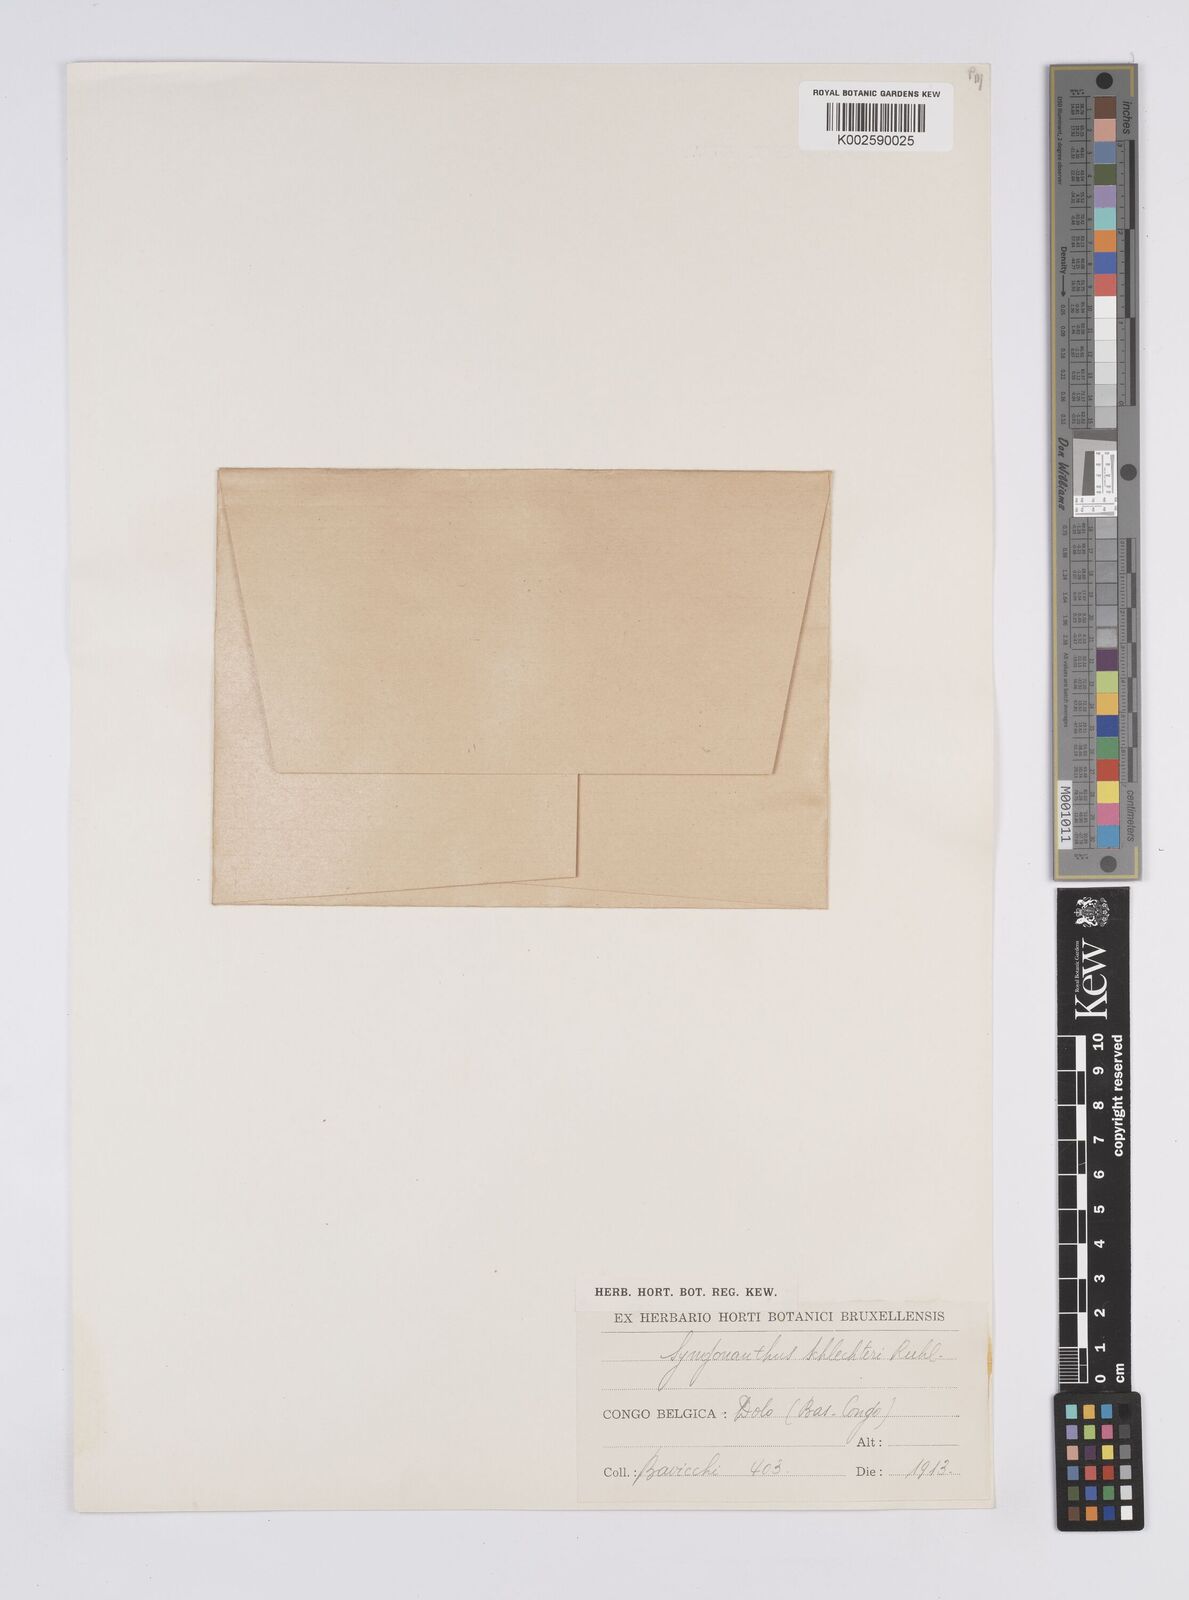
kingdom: Plantae
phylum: Tracheophyta
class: Liliopsida
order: Poales
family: Eriocaulaceae
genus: Syngonanthus
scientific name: Syngonanthus schlechteri
